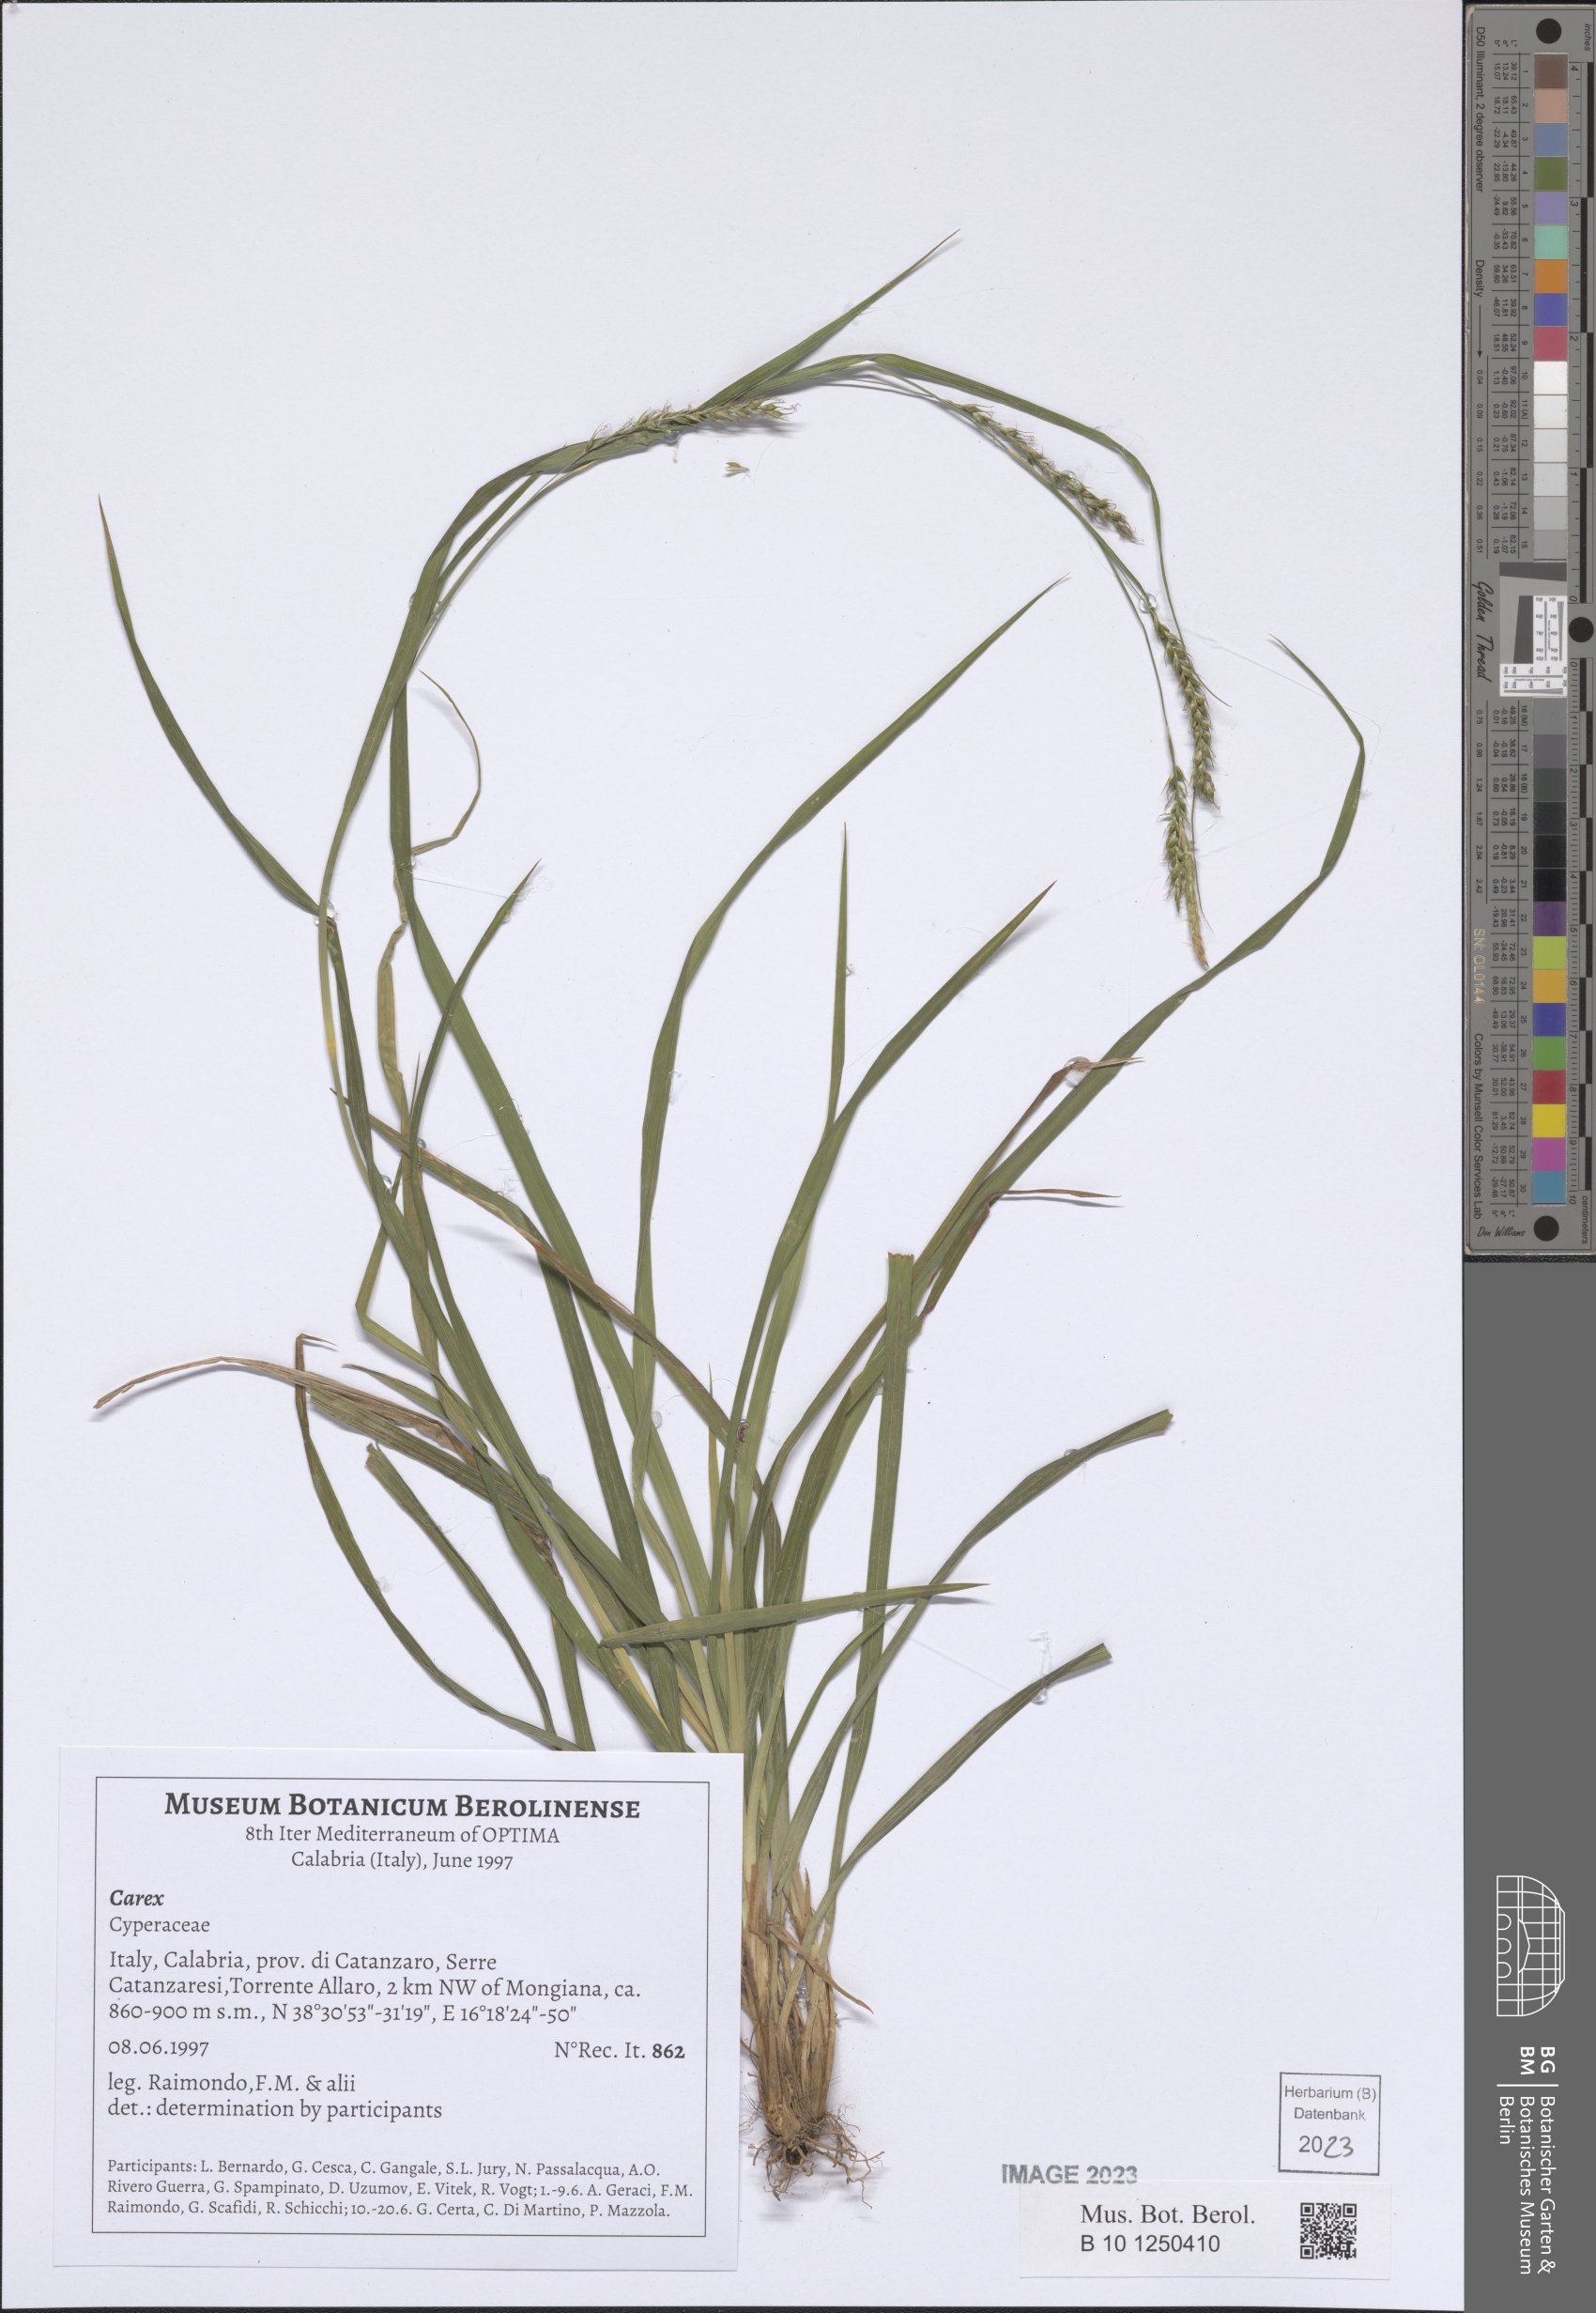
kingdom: Plantae
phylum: Tracheophyta
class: Liliopsida
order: Poales
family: Cyperaceae
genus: Carex
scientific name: Carex
